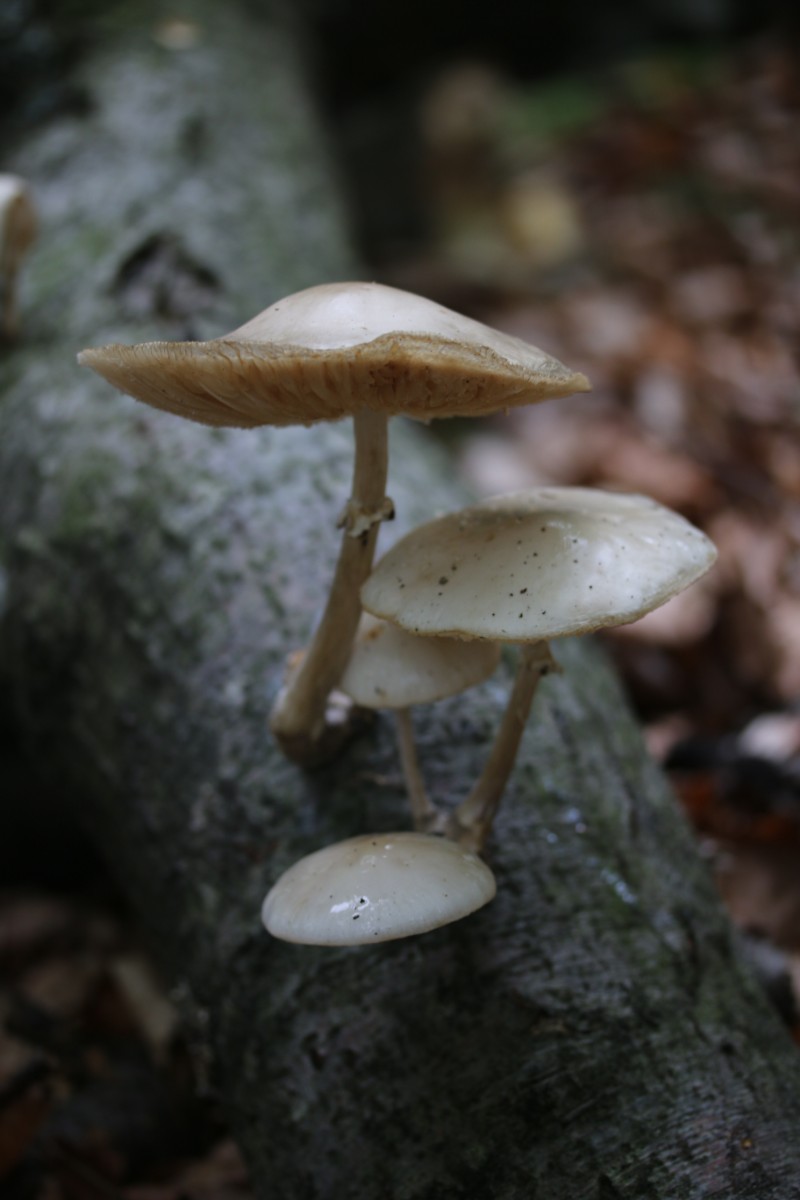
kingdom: Fungi
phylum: Basidiomycota
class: Agaricomycetes
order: Agaricales
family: Physalacriaceae
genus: Mucidula
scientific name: Mucidula mucida
